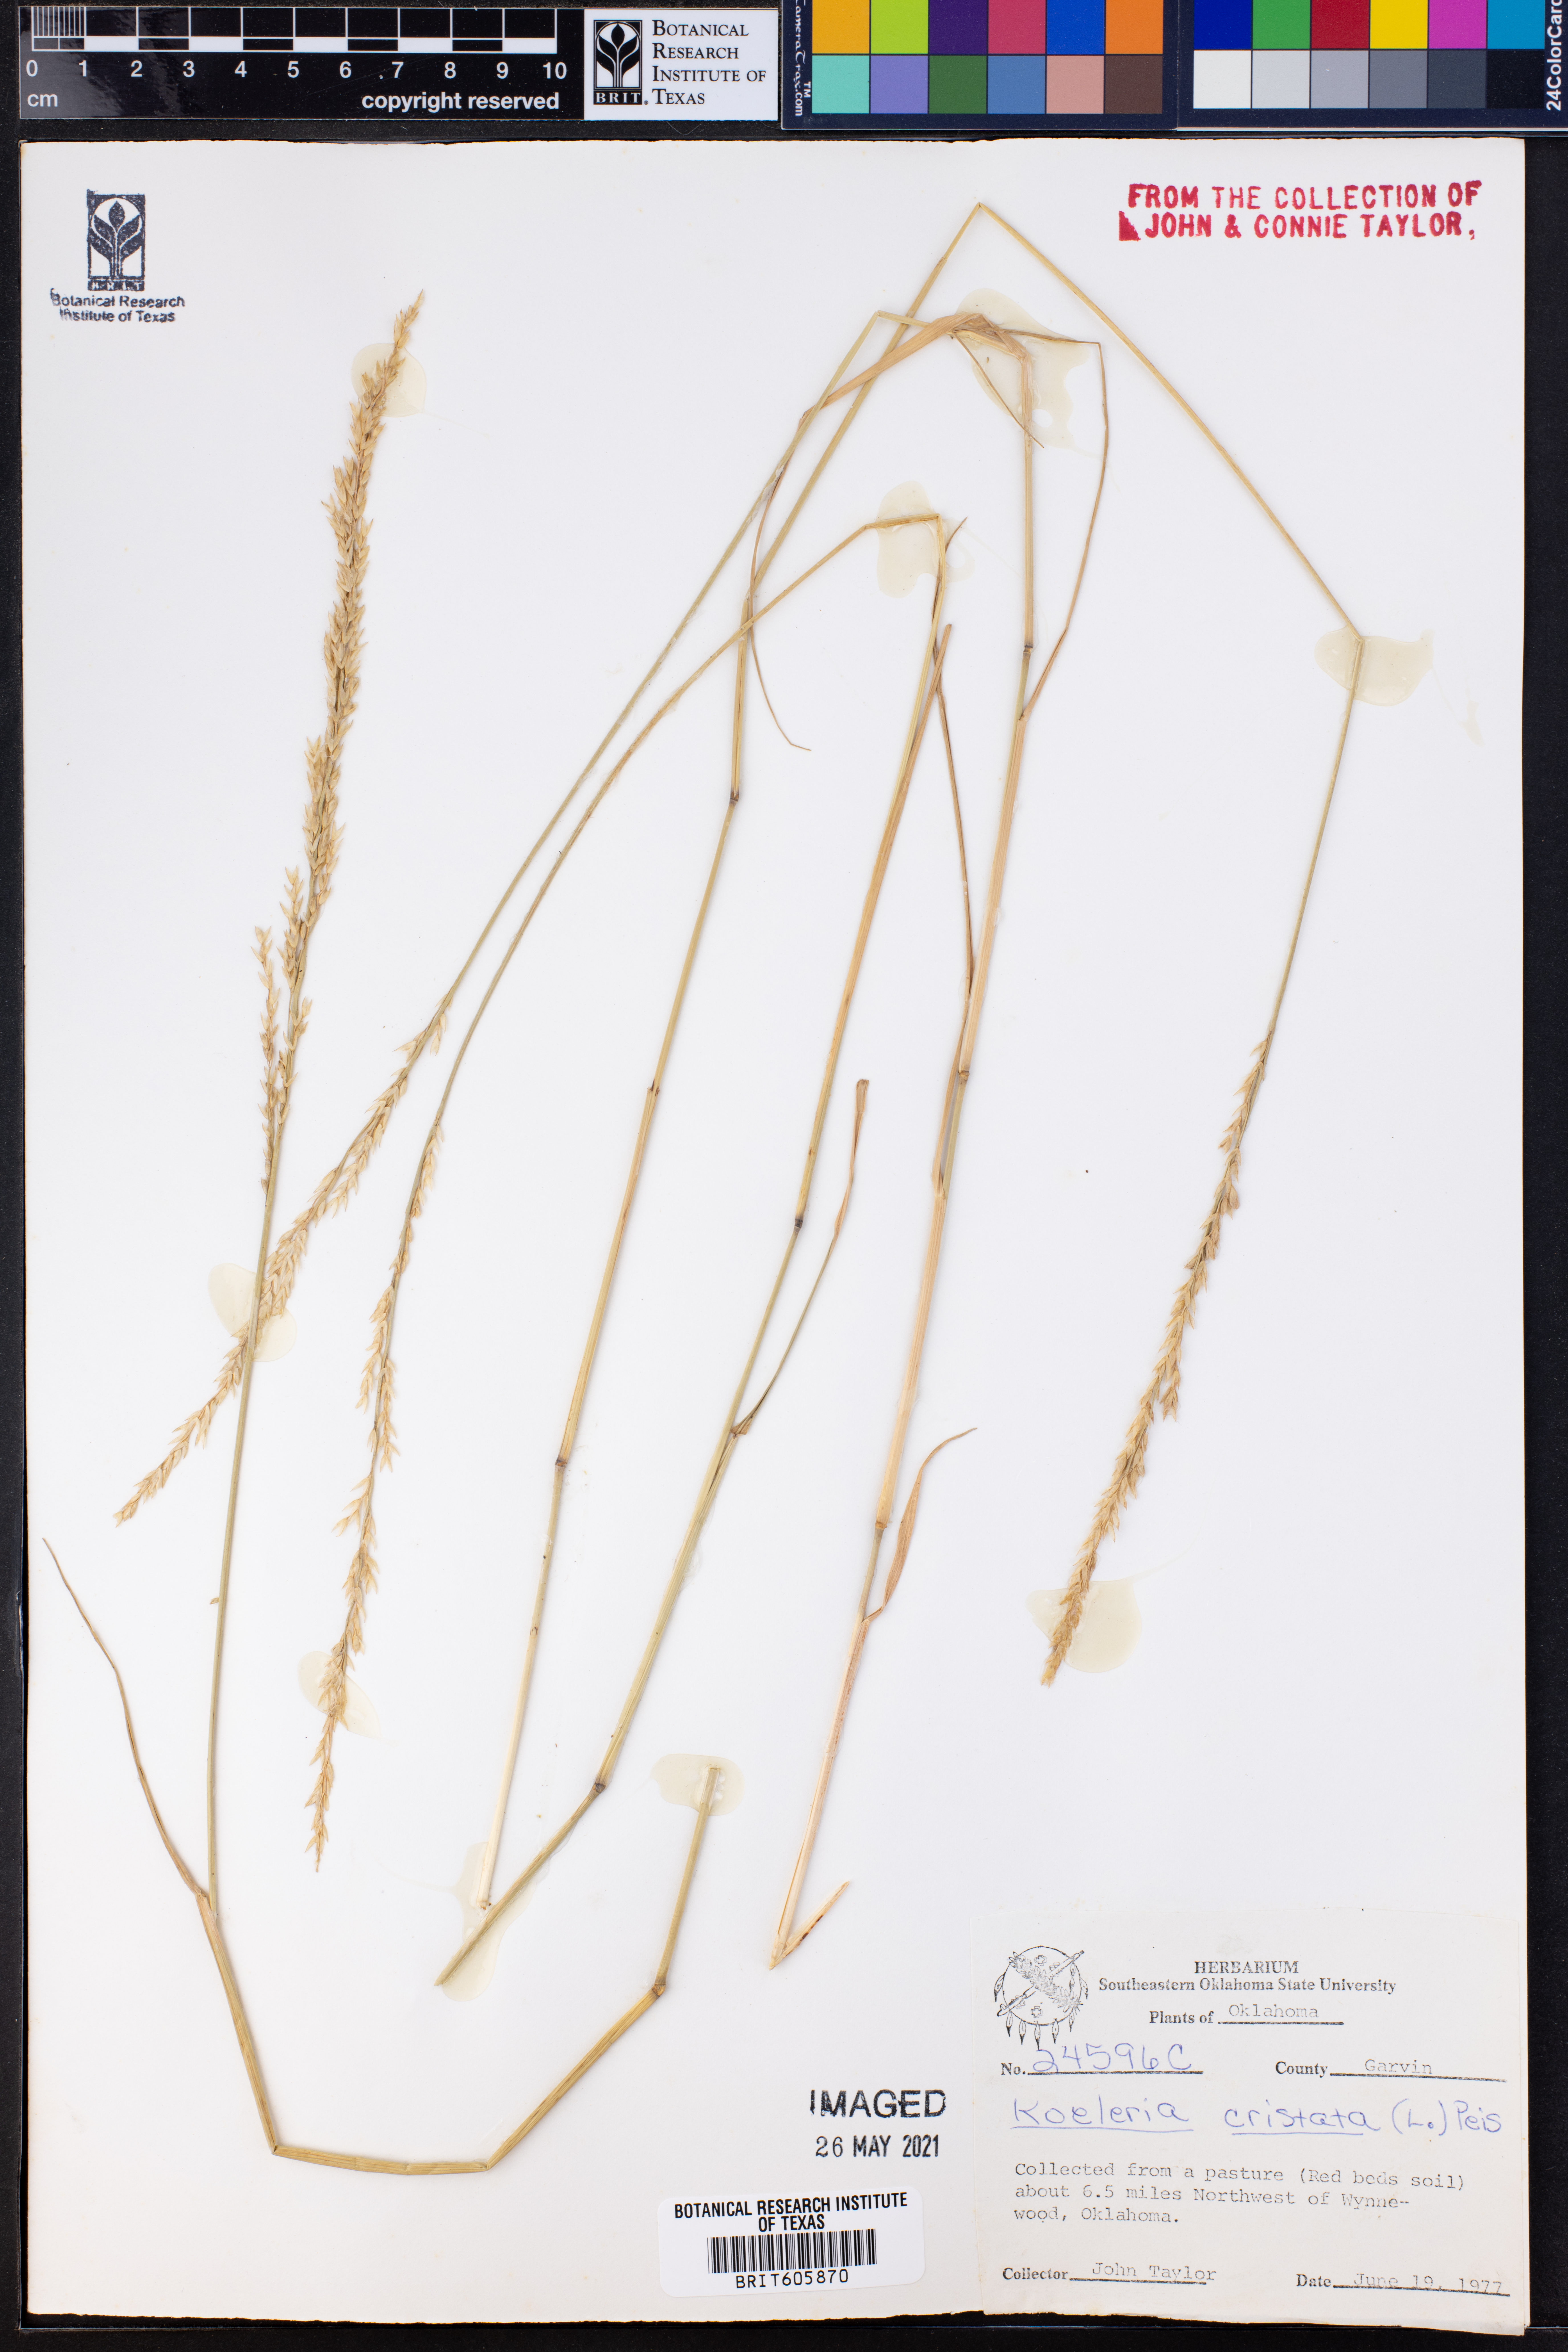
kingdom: Plantae
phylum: Tracheophyta
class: Liliopsida
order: Poales
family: Poaceae
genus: Koeleria
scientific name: Koeleria cristata
